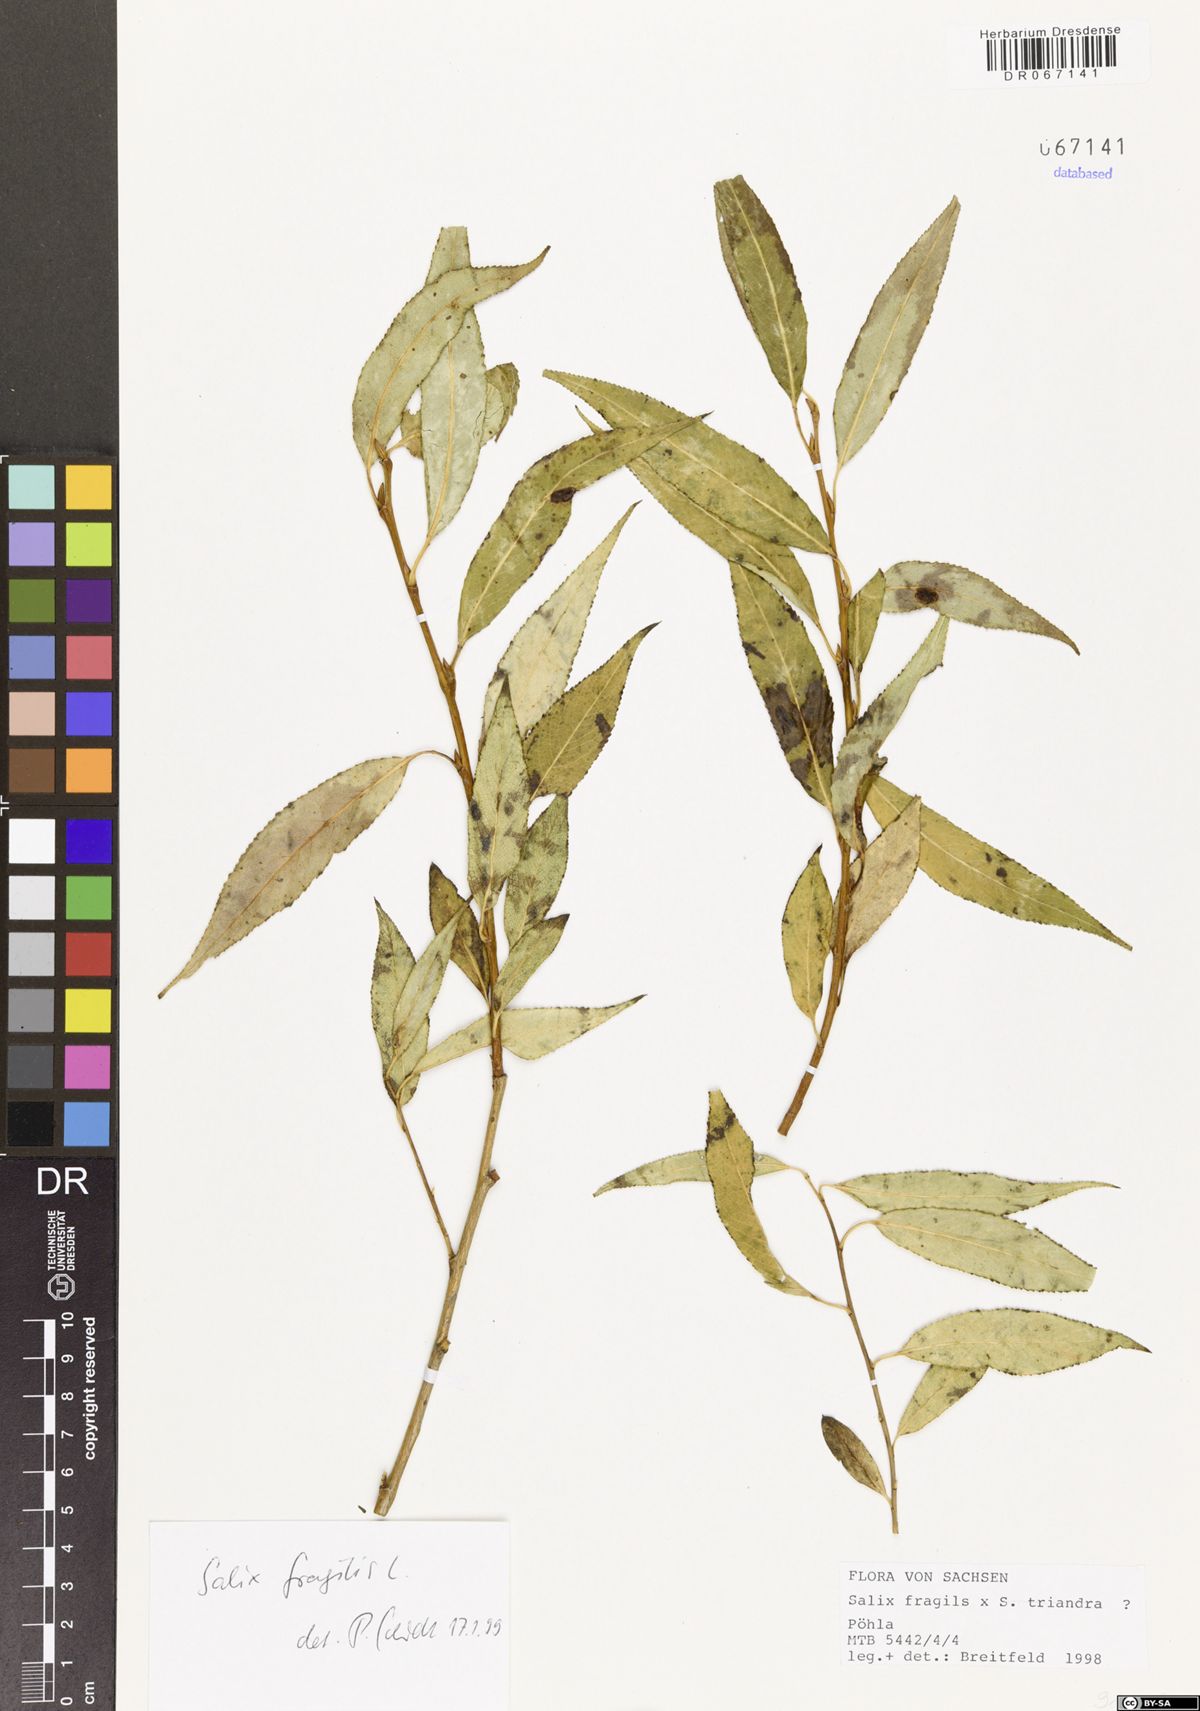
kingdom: Plantae
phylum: Tracheophyta
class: Magnoliopsida
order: Malpighiales
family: Salicaceae
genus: Salix
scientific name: Salix fragilis
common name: Crack willow
